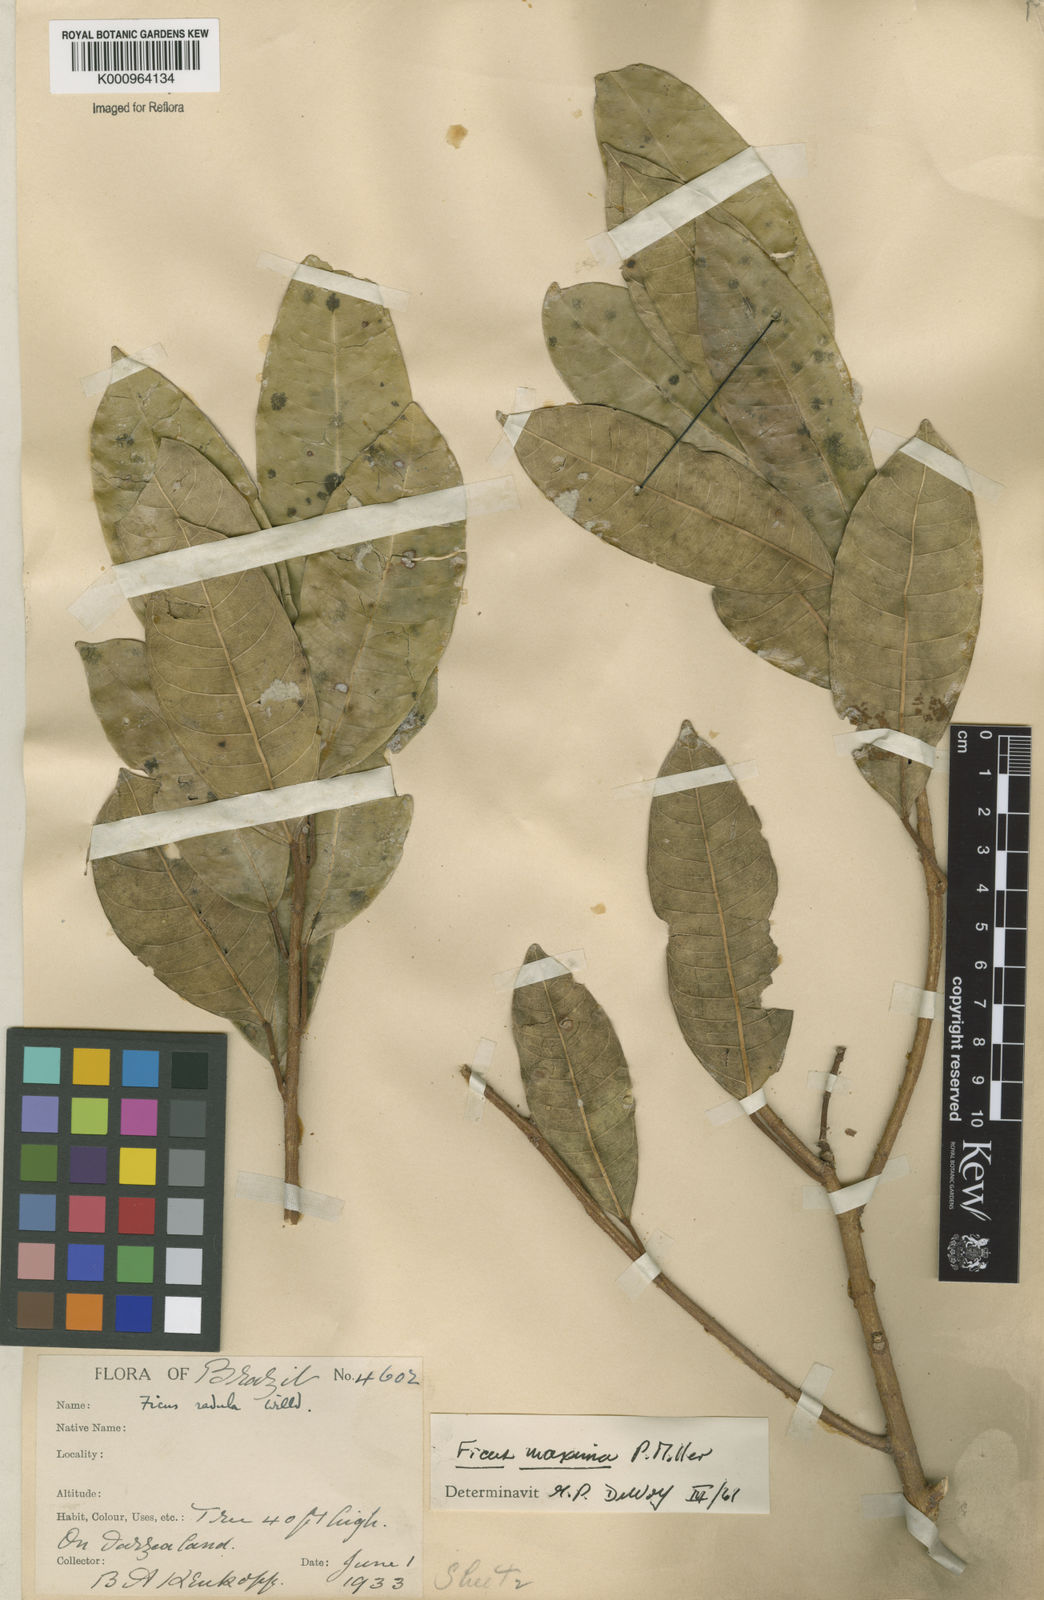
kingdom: Plantae
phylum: Tracheophyta
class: Magnoliopsida
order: Rosales
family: Moraceae
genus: Ficus
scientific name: Ficus maxima
